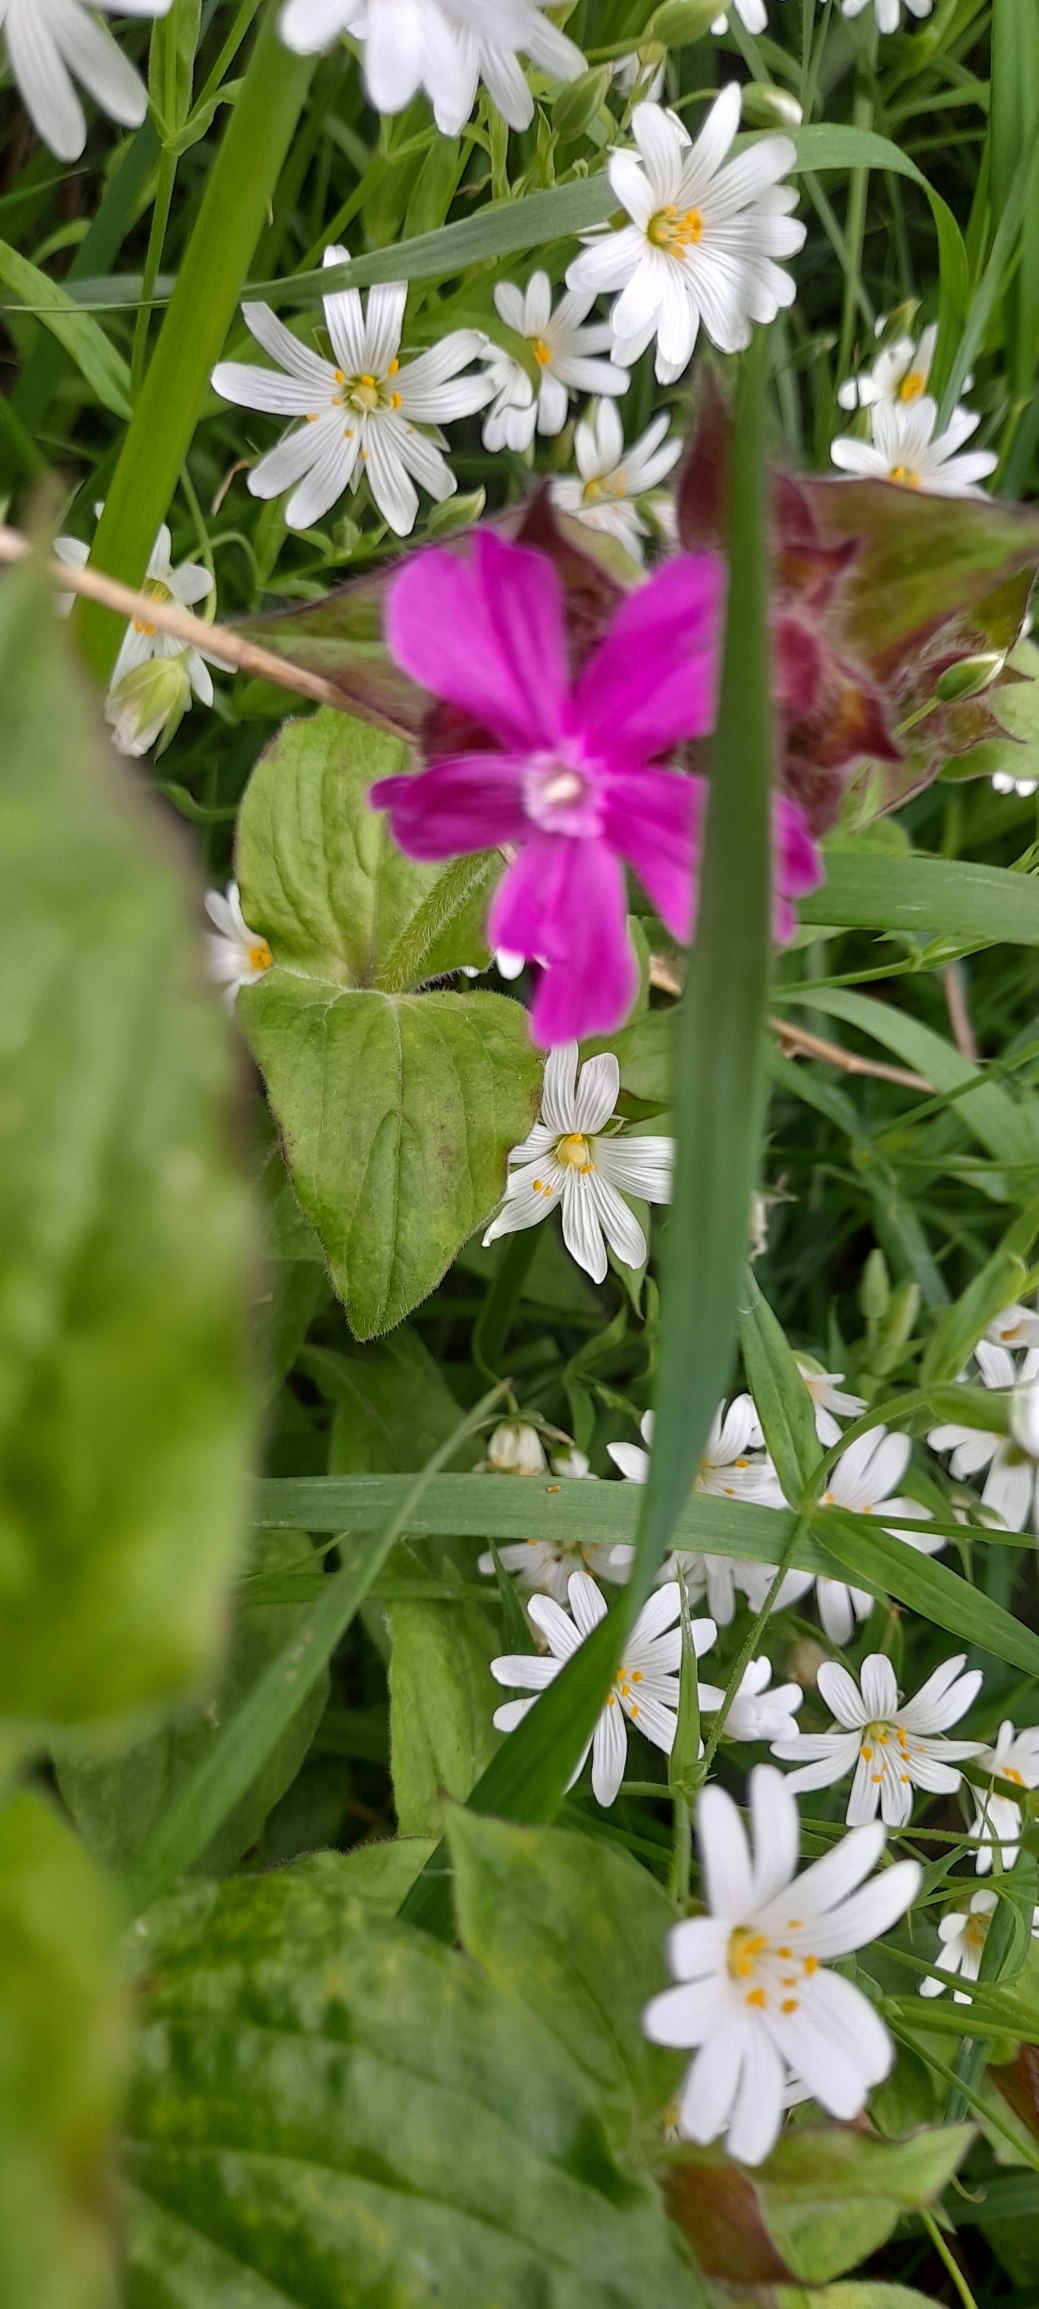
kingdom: Plantae
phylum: Tracheophyta
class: Magnoliopsida
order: Caryophyllales
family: Caryophyllaceae
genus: Silene
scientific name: Silene dioica
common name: Dagpragtstjerne
